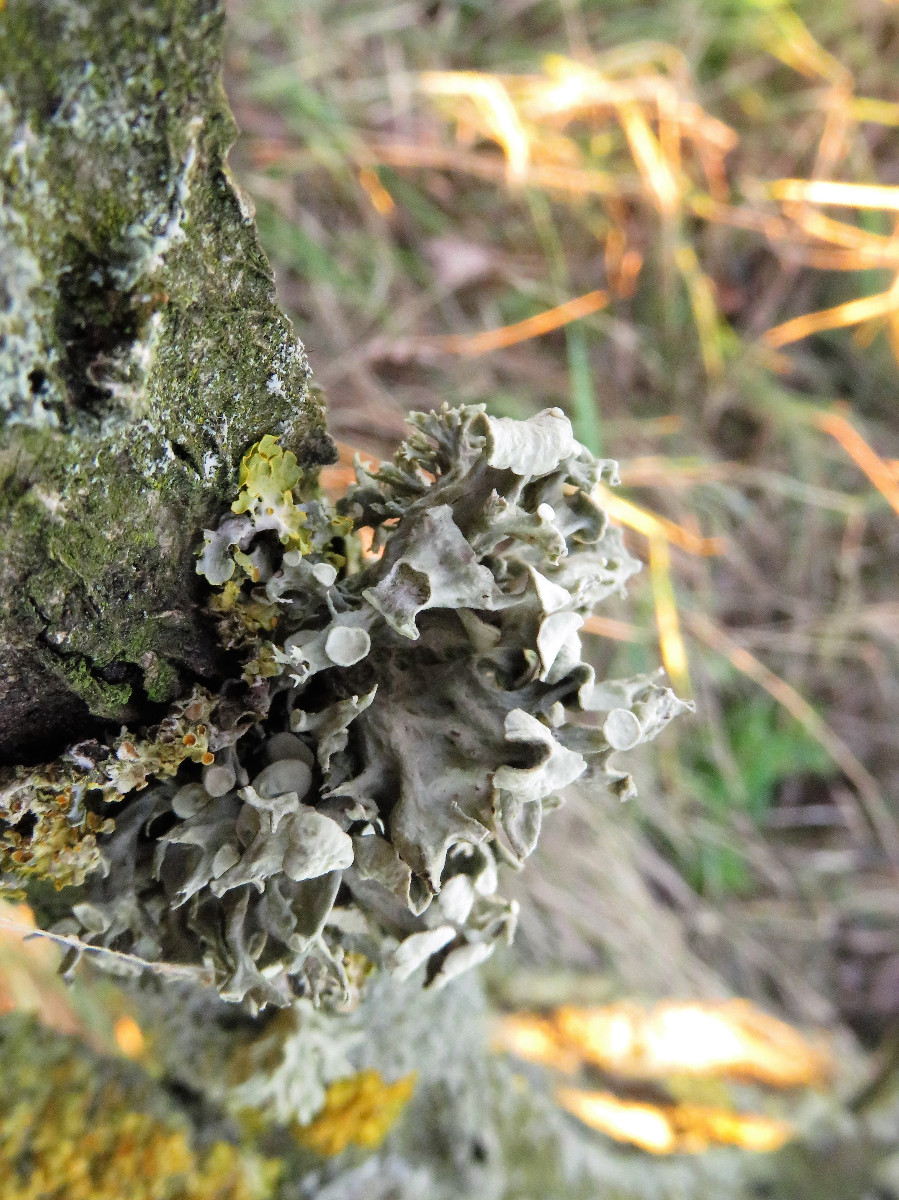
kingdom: Fungi
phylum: Ascomycota
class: Lecanoromycetes
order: Lecanorales
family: Ramalinaceae
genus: Ramalina
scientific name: Ramalina fastigiata
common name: tue-grenlav
